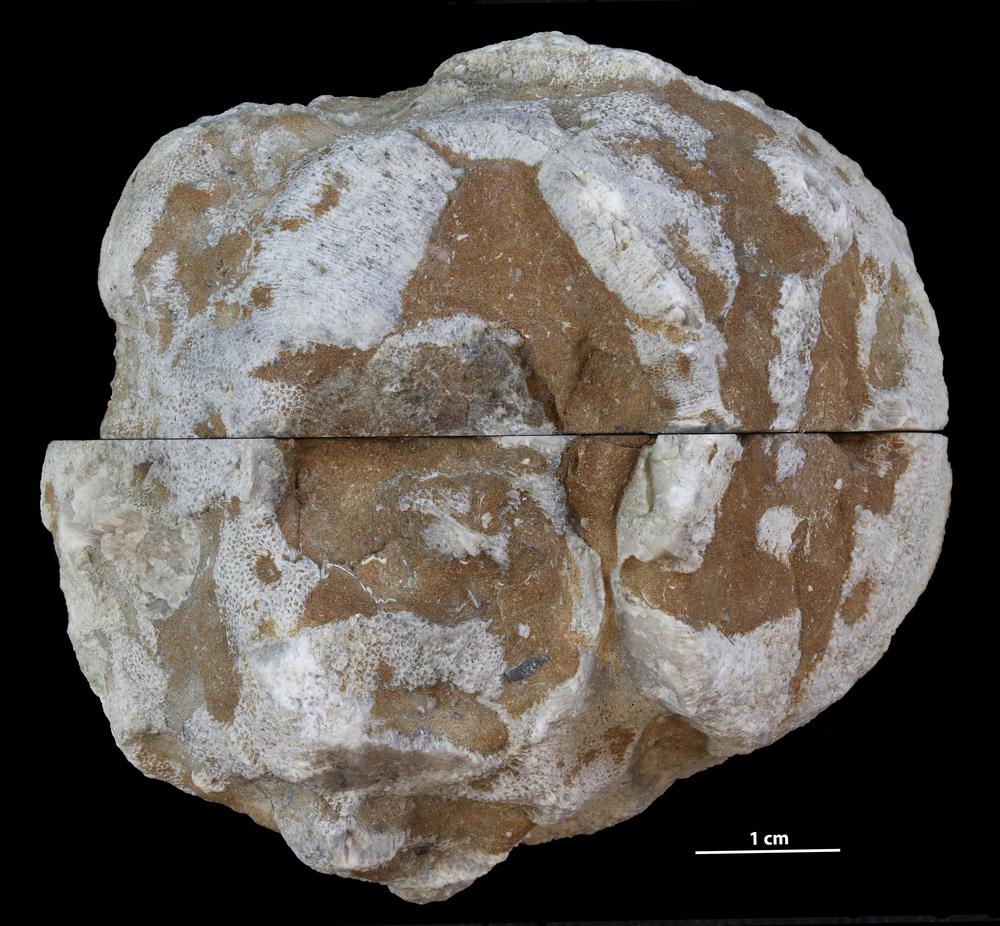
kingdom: Animalia
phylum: Bryozoa
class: Stenolaemata
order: Trepostomatida
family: Diplotrypidae
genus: Diplotrypa
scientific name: Diplotrypa petropolitana
